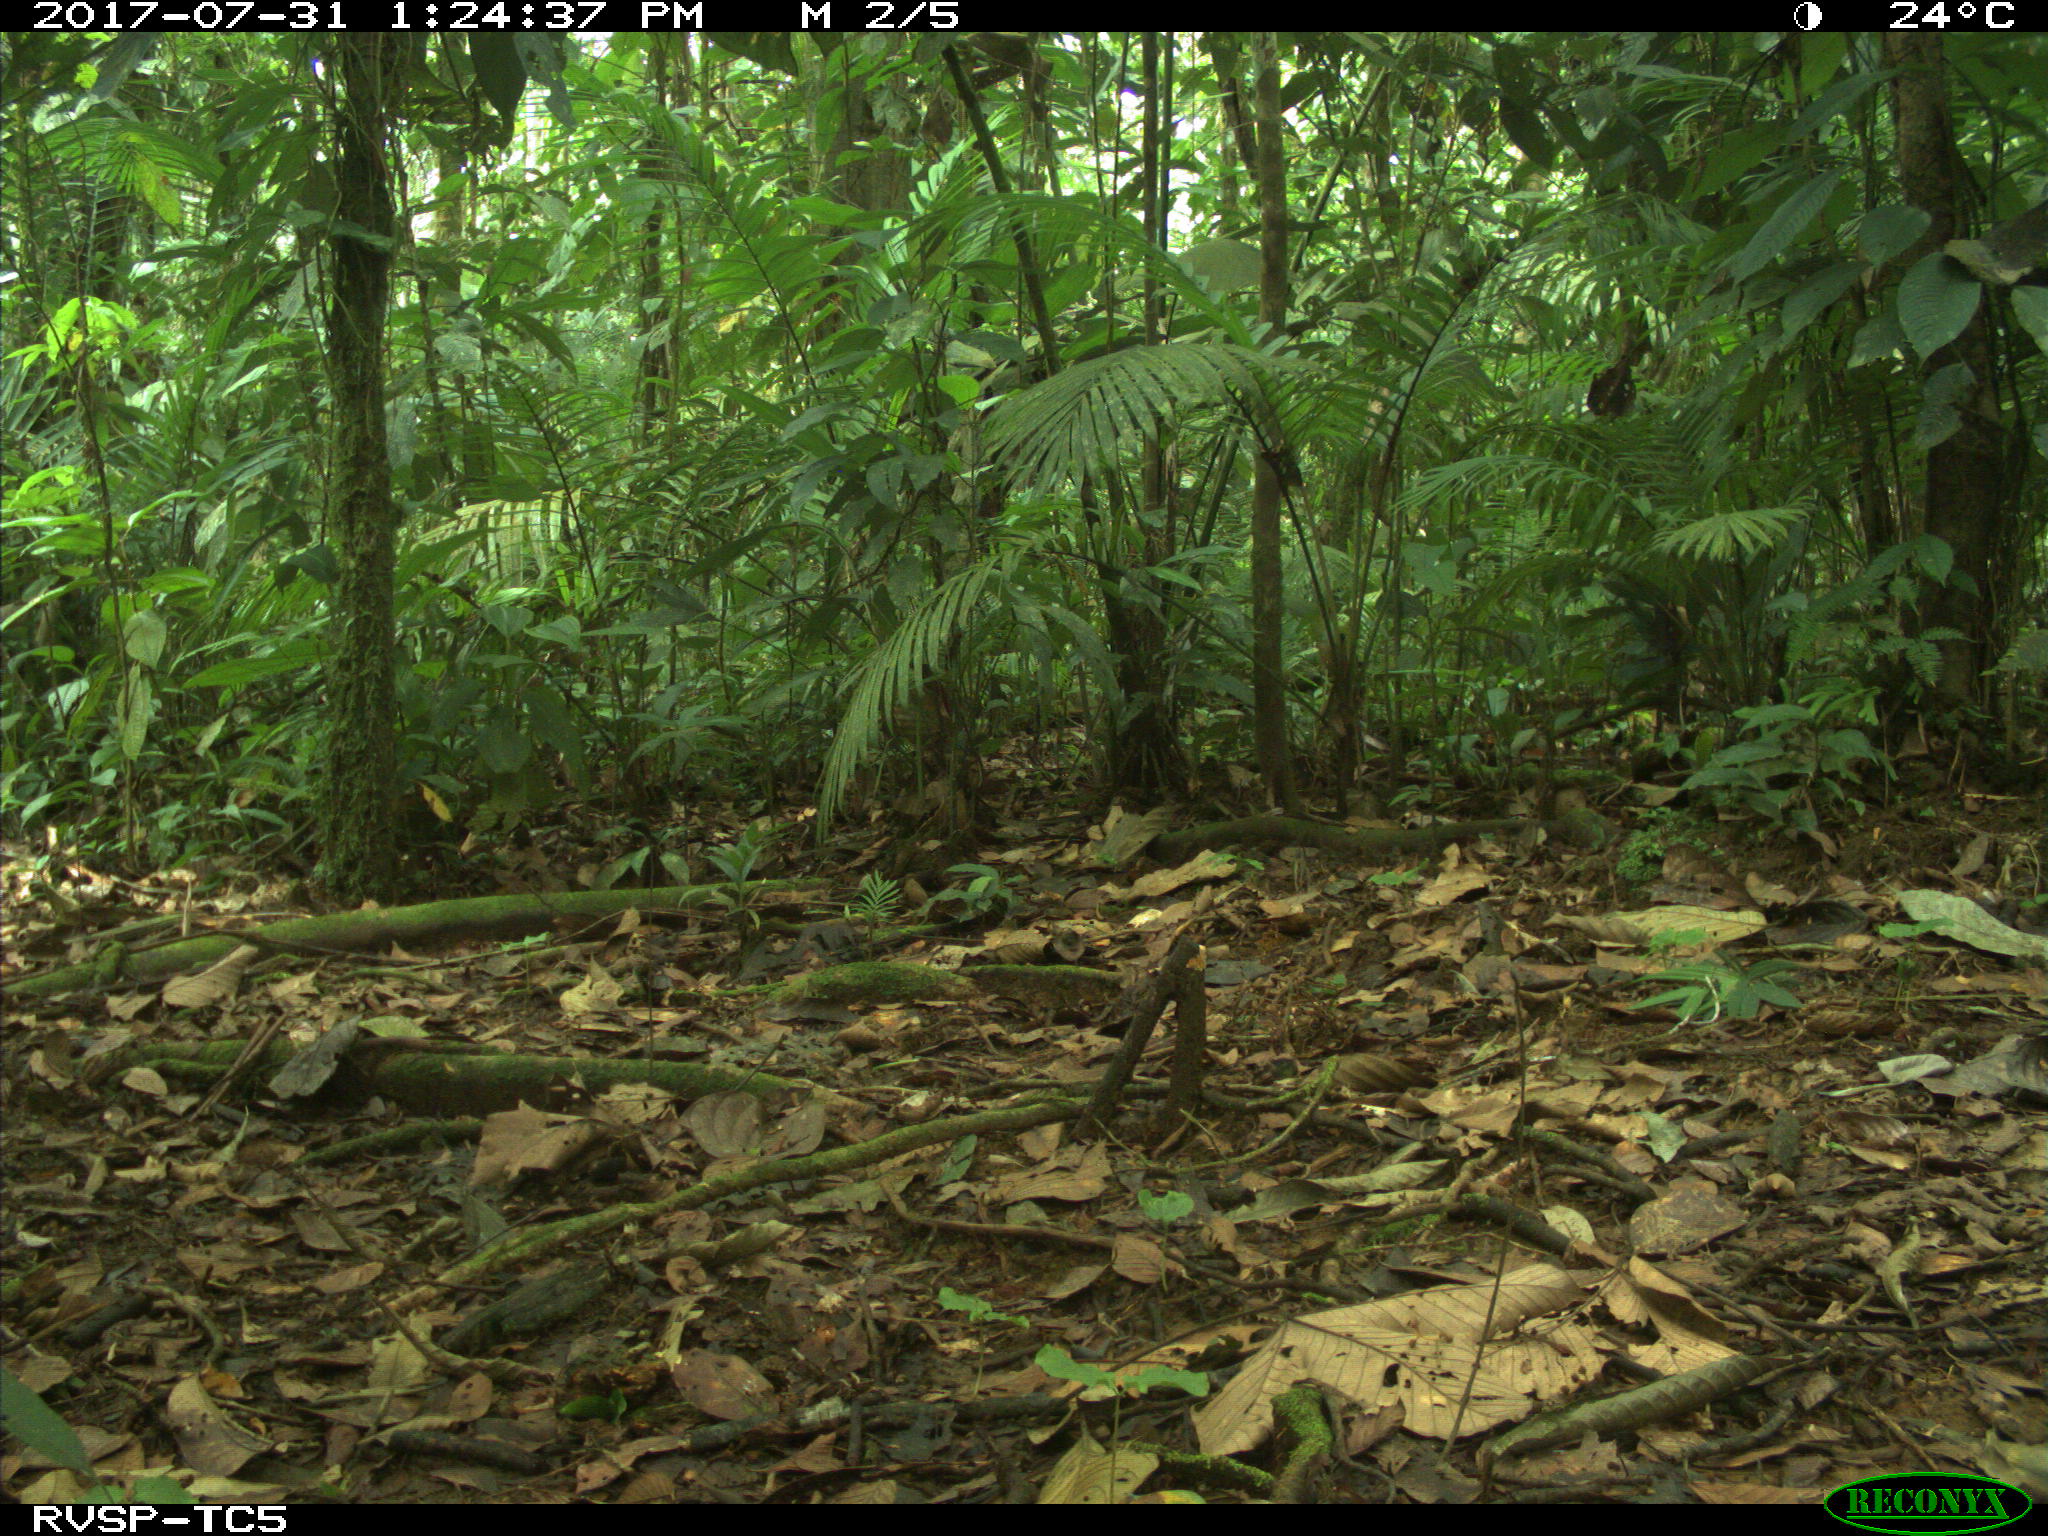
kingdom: Animalia
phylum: Chordata
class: Mammalia
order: Rodentia
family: Dasyproctidae
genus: Dasyprocta
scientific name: Dasyprocta punctata
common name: Central american agouti
